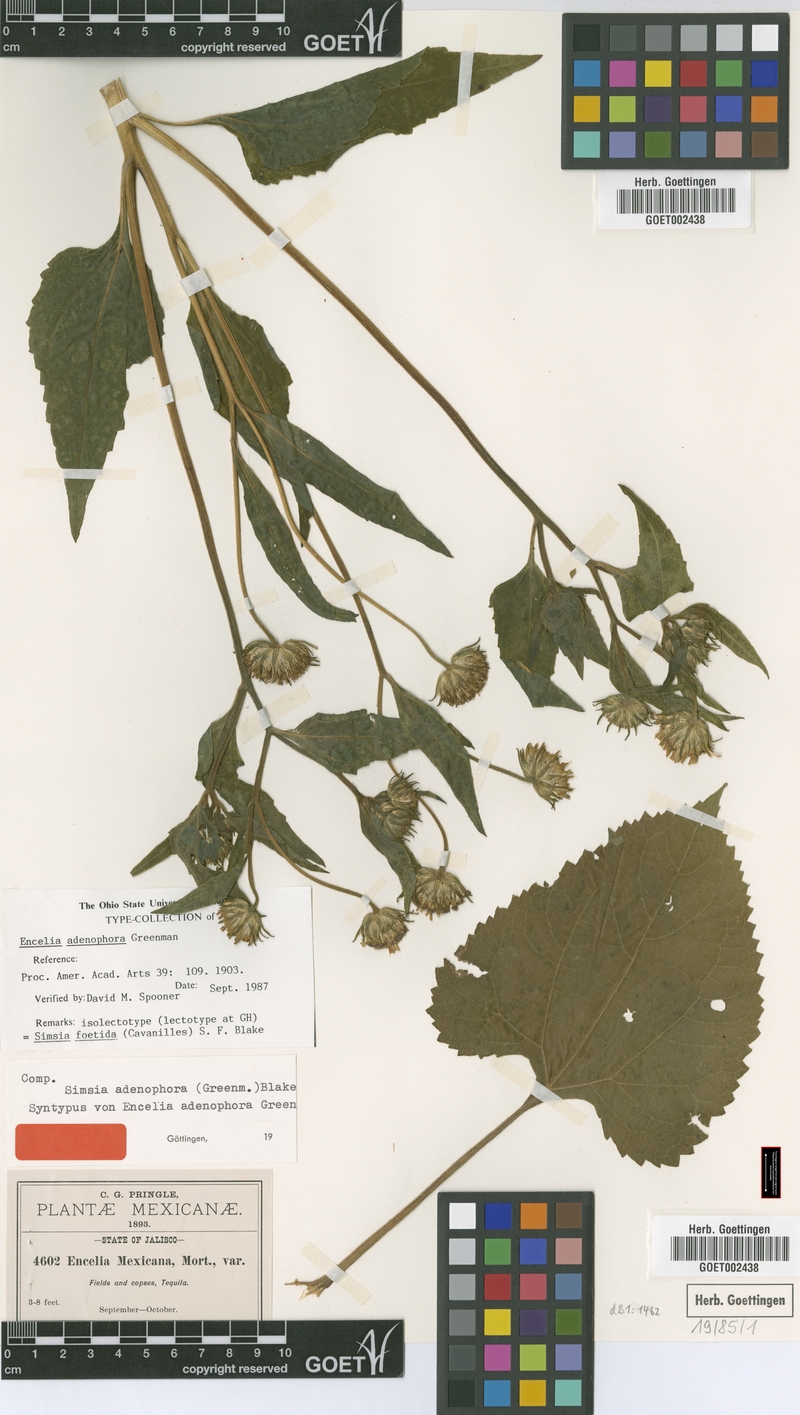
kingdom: Plantae
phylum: Tracheophyta
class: Magnoliopsida
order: Asterales
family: Asteraceae
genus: Simsia
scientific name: Simsia foetida
